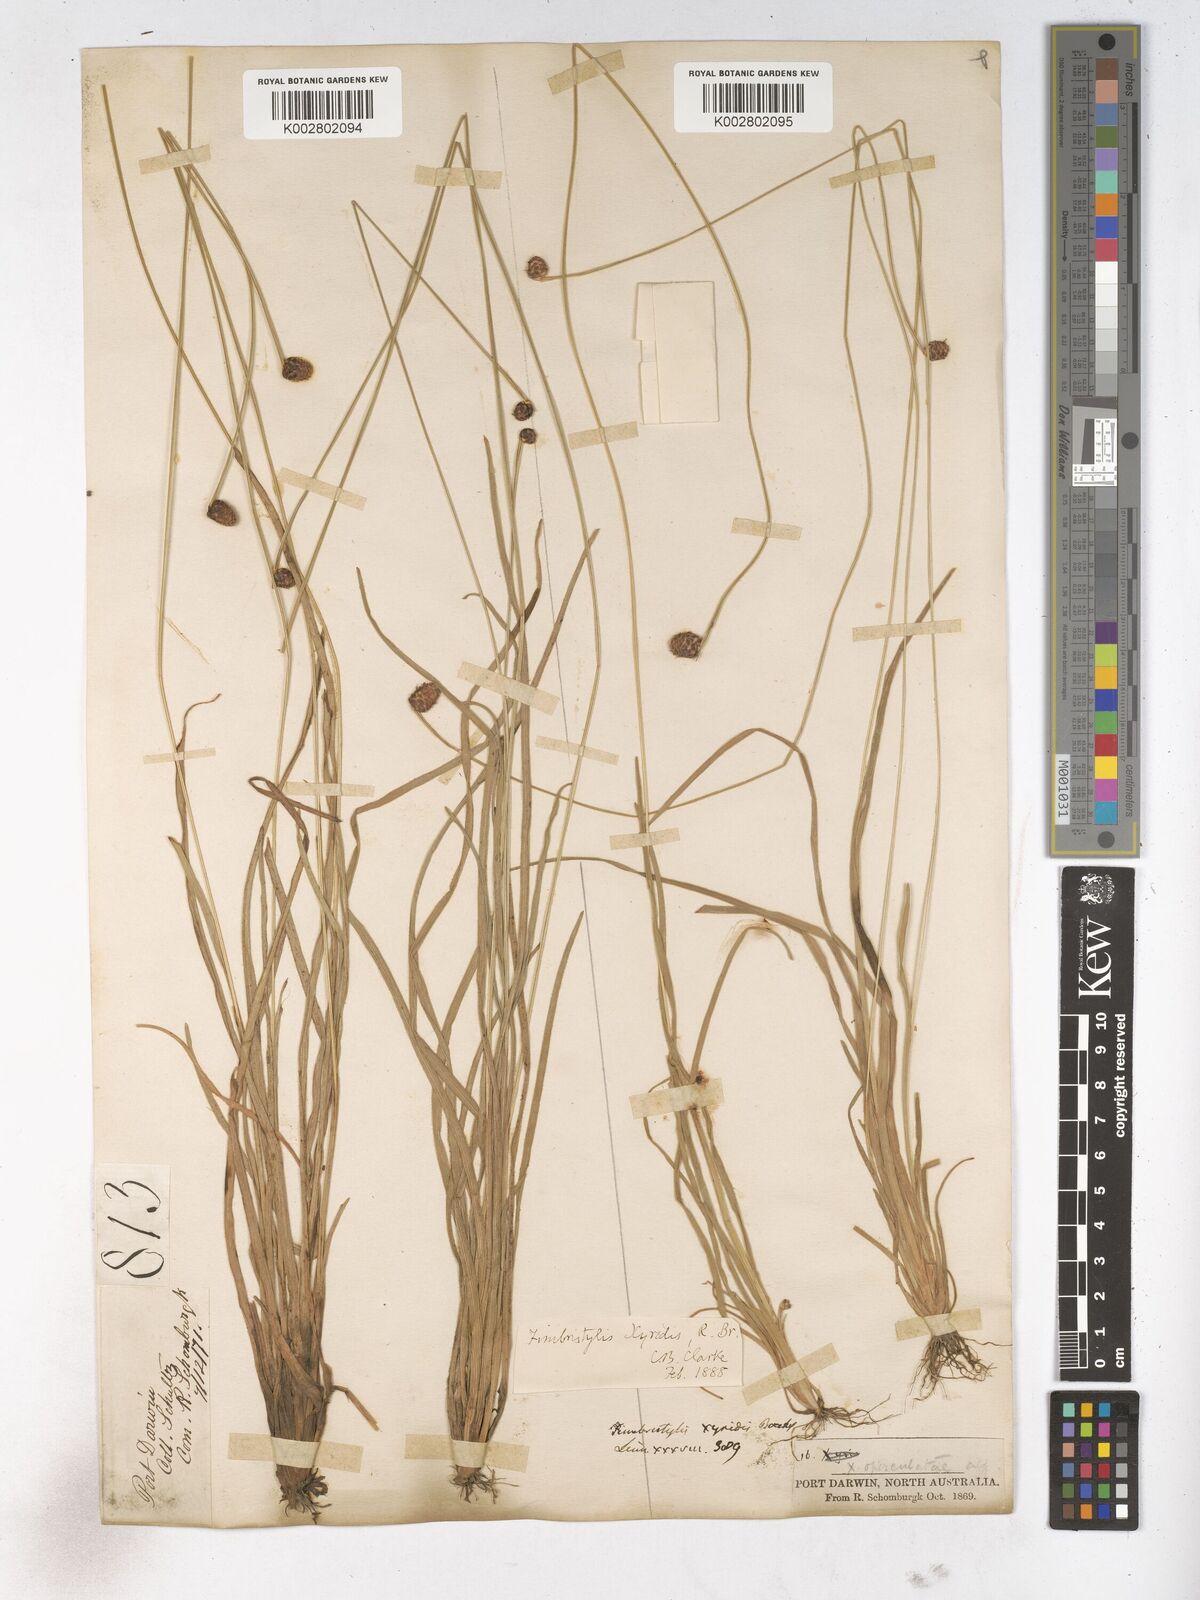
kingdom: Plantae
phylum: Tracheophyta
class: Liliopsida
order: Poales
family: Cyperaceae
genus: Fimbristylis
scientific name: Fimbristylis xyridis
